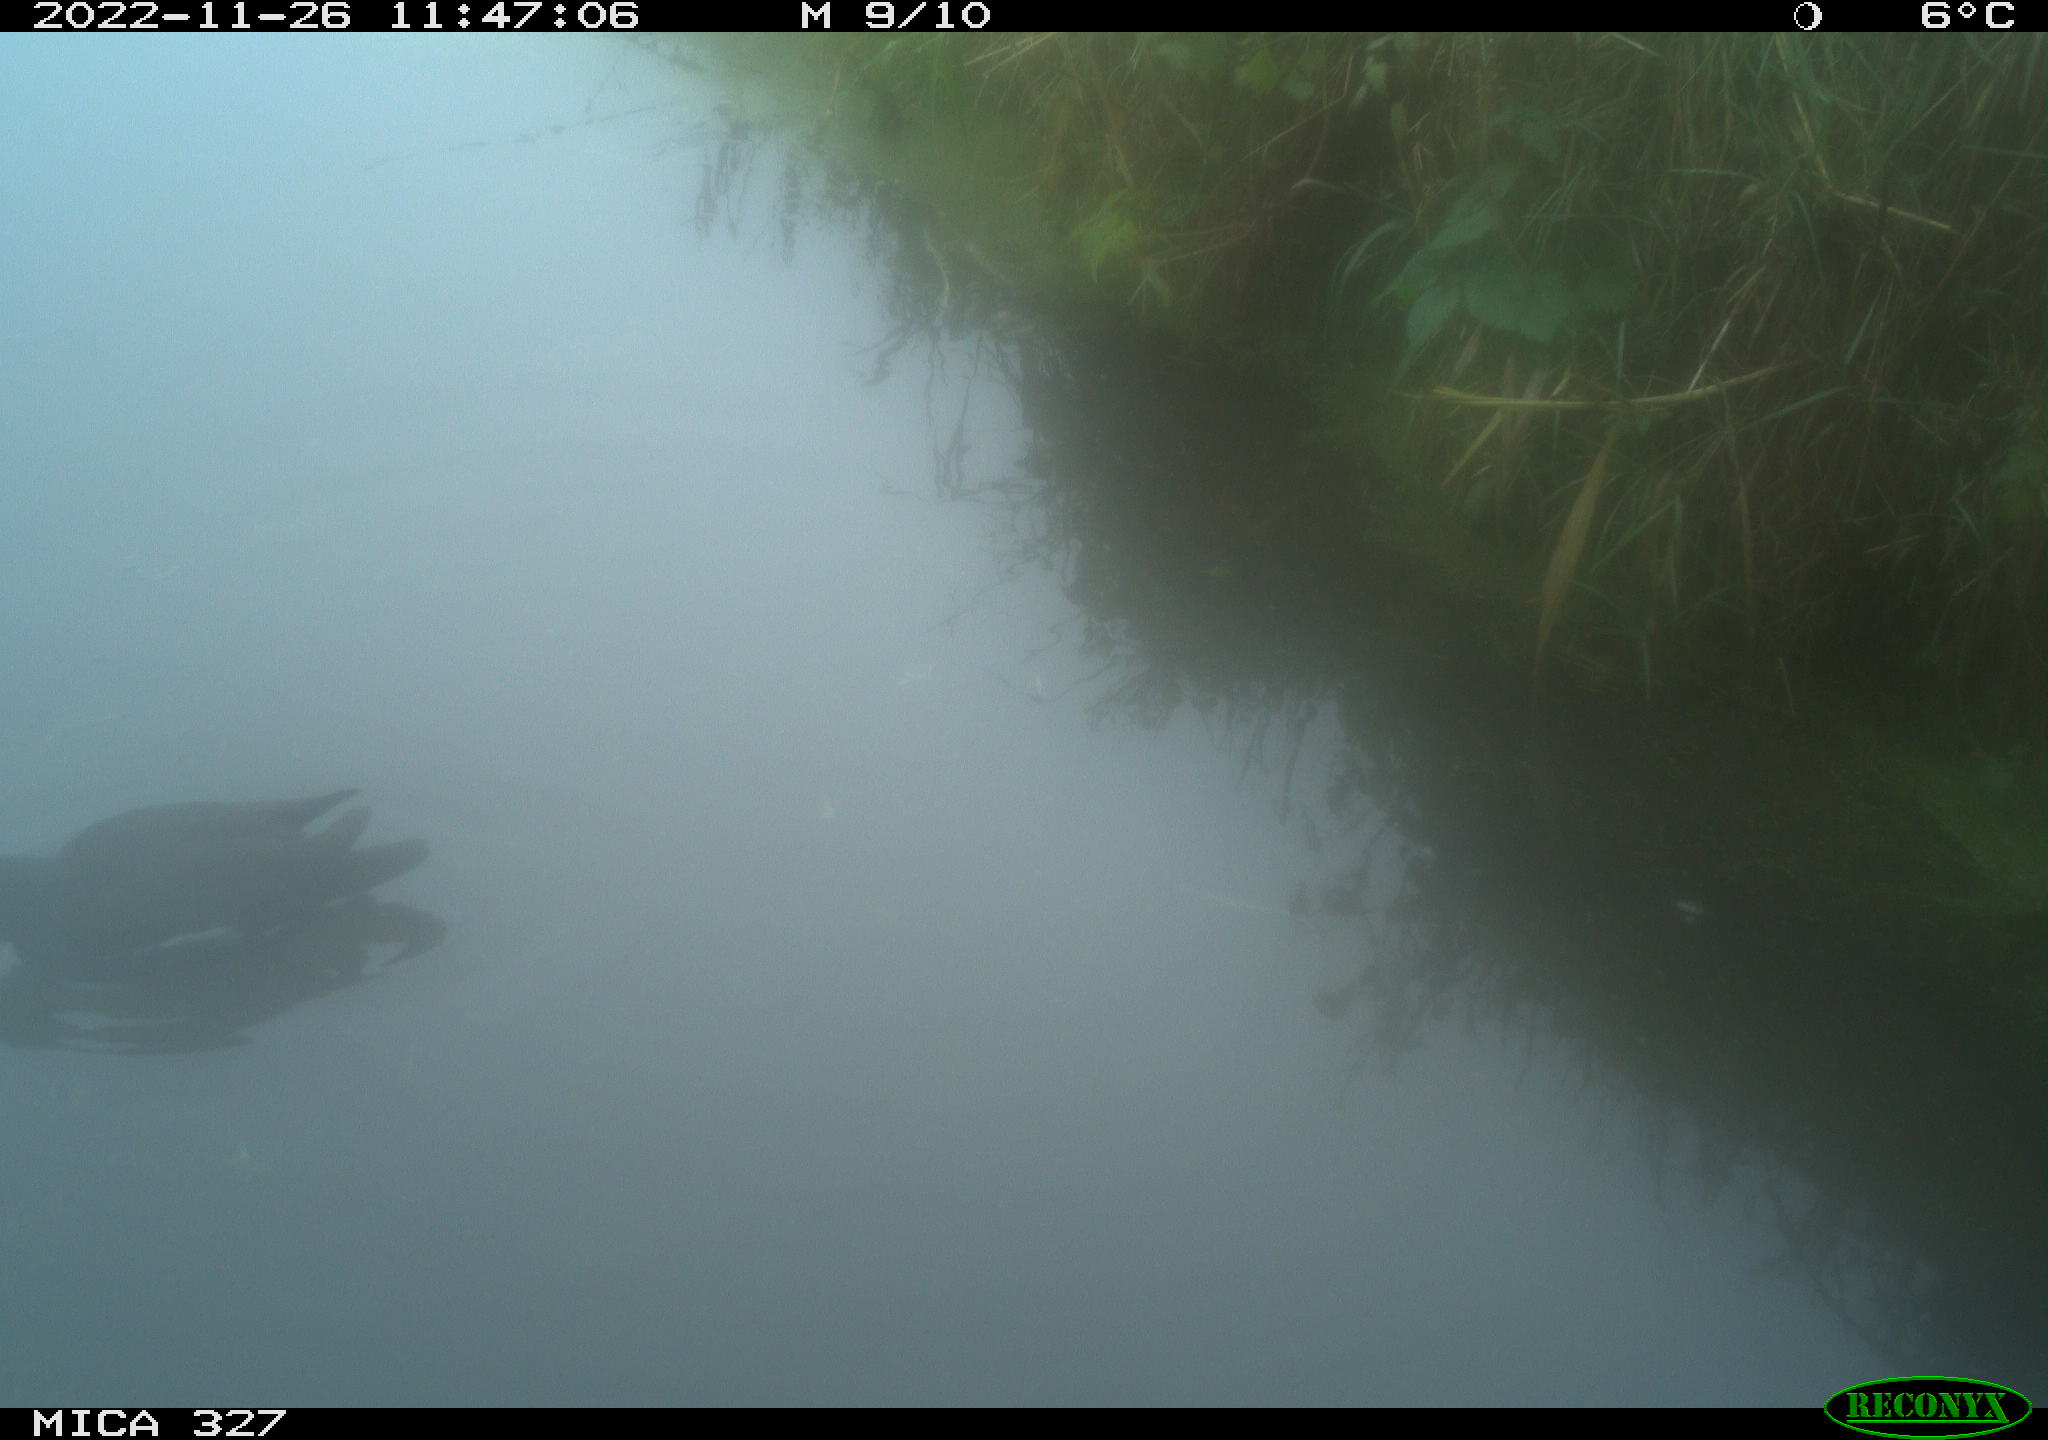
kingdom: Animalia
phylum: Chordata
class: Aves
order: Gruiformes
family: Rallidae
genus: Gallinula
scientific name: Gallinula chloropus
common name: Common moorhen
